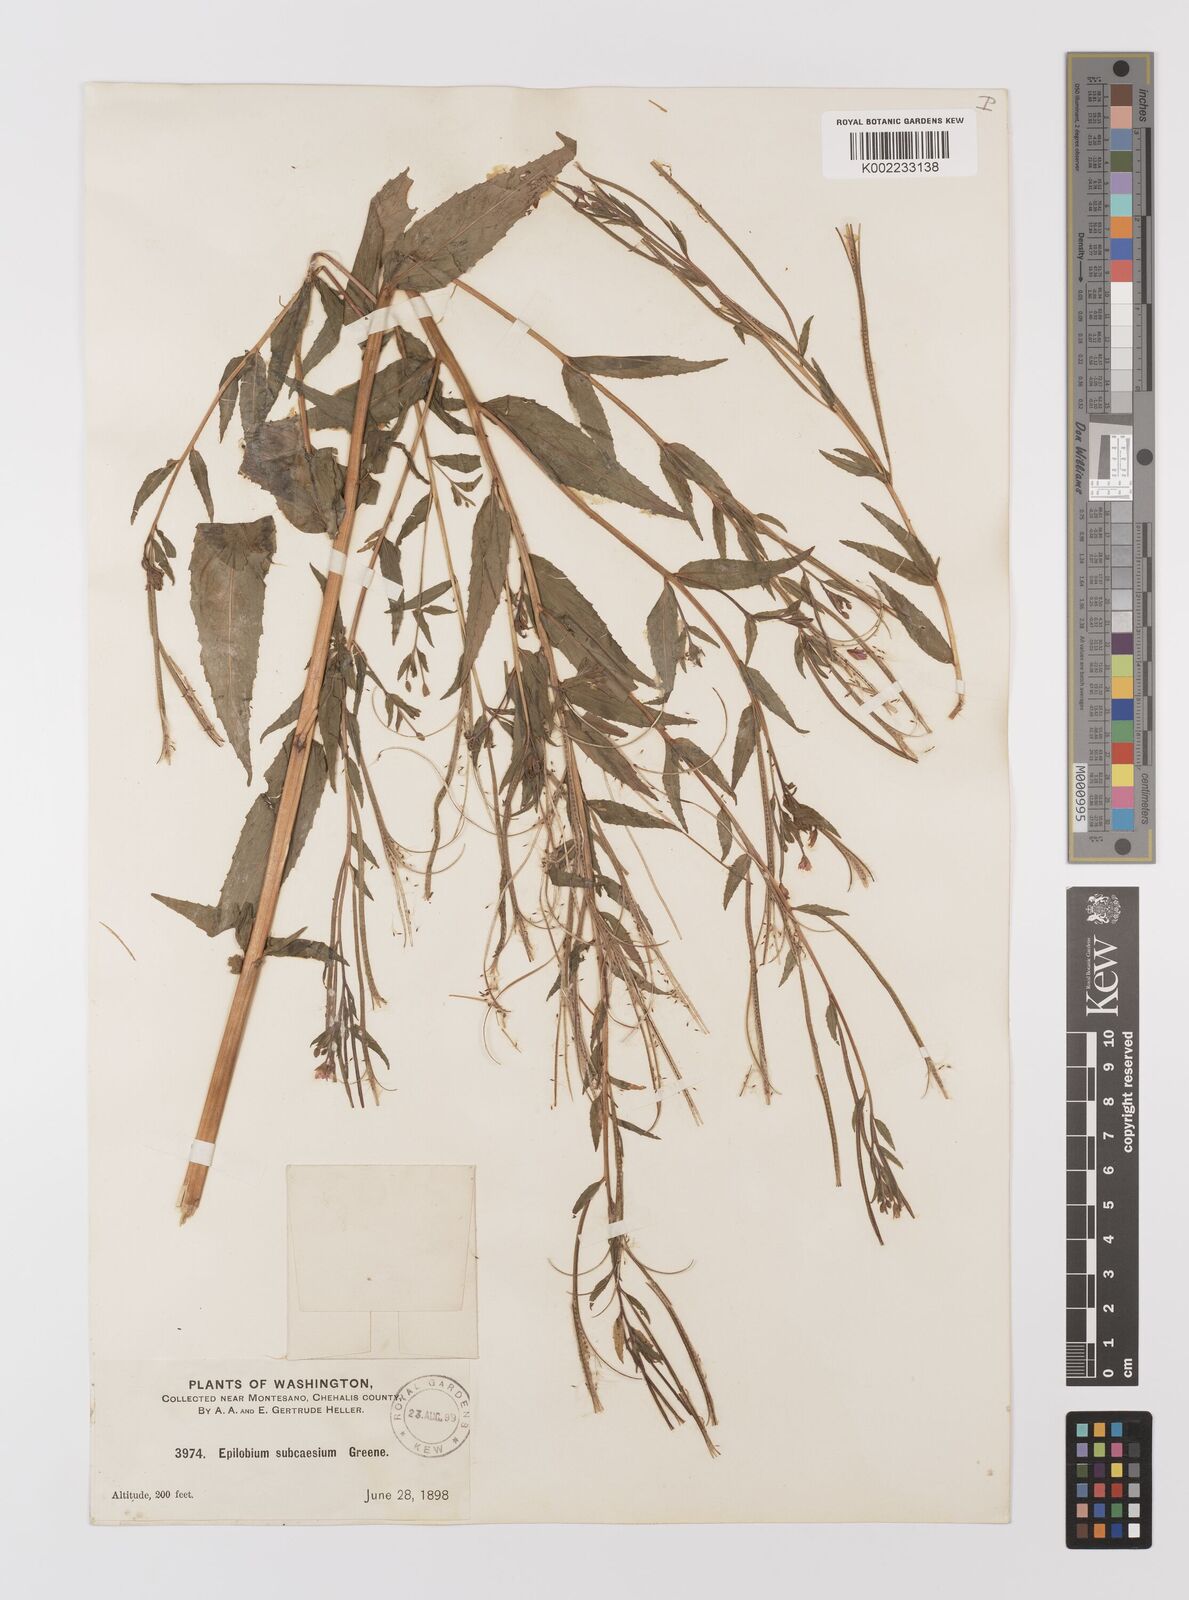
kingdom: Plantae
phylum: Tracheophyta
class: Magnoliopsida
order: Myrtales
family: Onagraceae
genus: Epilobium
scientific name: Epilobium oreganum
